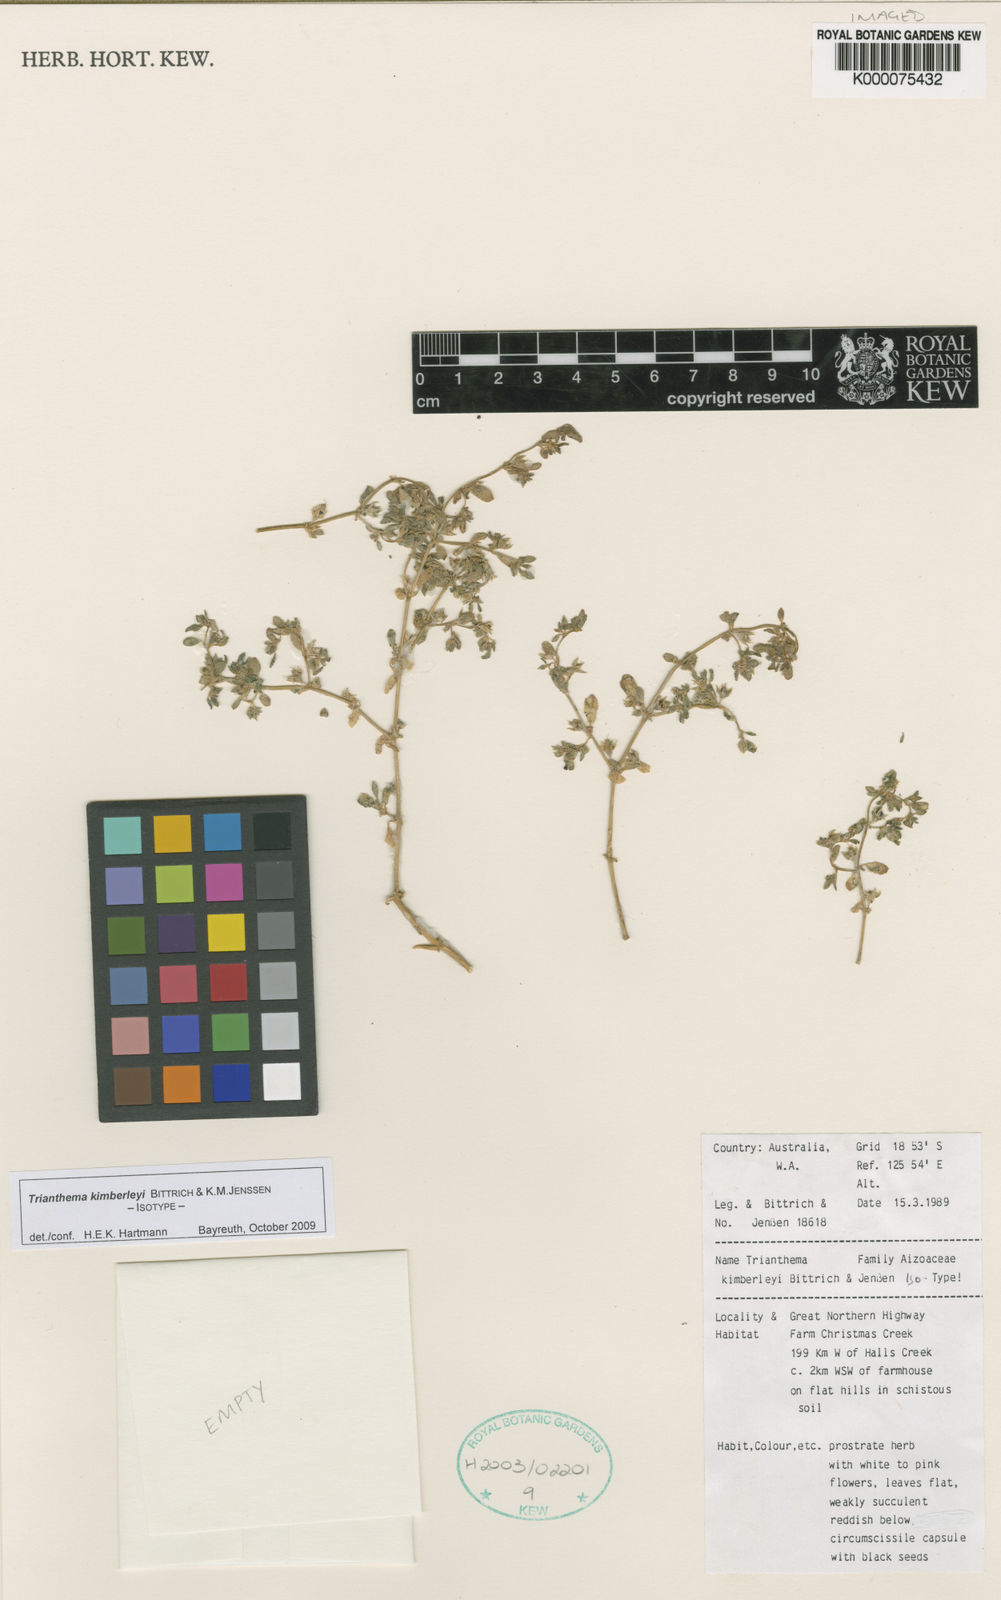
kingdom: Plantae
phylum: Tracheophyta
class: Magnoliopsida
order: Caryophyllales
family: Aizoaceae
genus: Trianthema
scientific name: Trianthema kimberleyi
